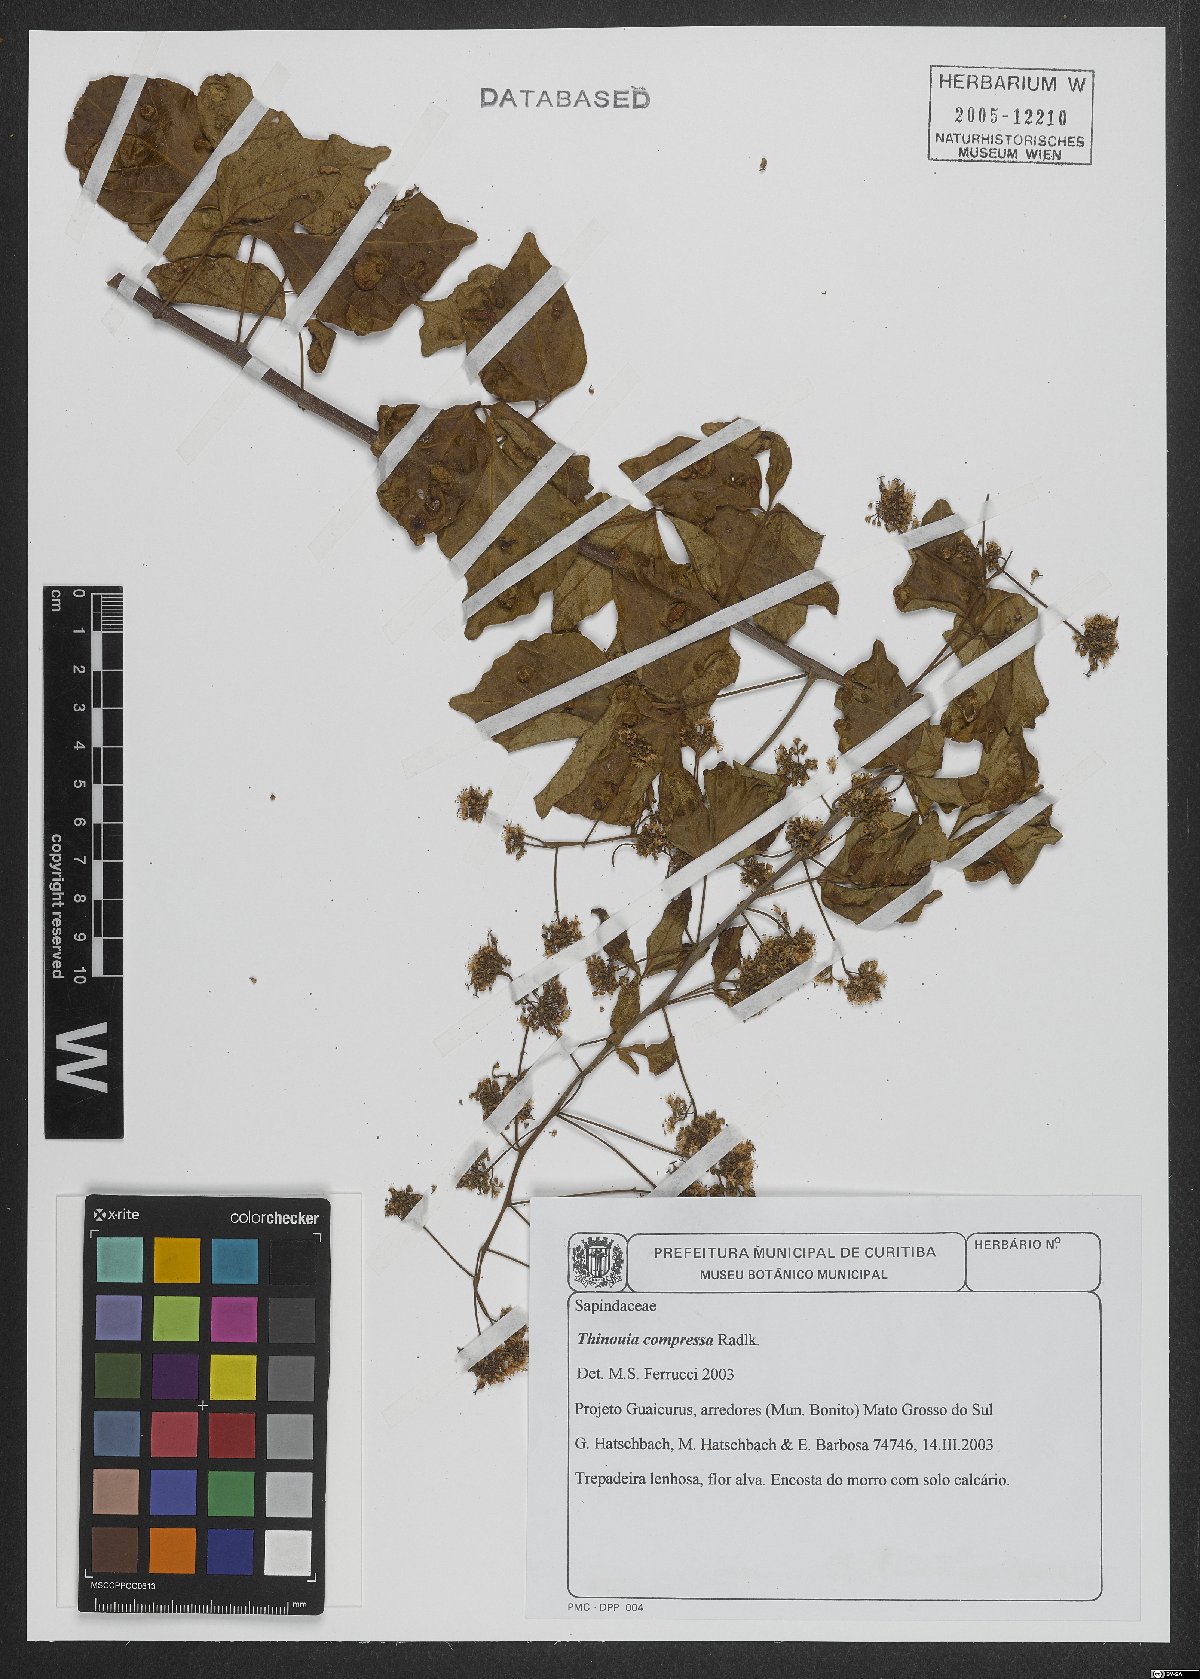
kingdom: Plantae
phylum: Tracheophyta
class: Magnoliopsida
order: Sapindales
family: Sapindaceae
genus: Thinouia
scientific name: Thinouia compressa
